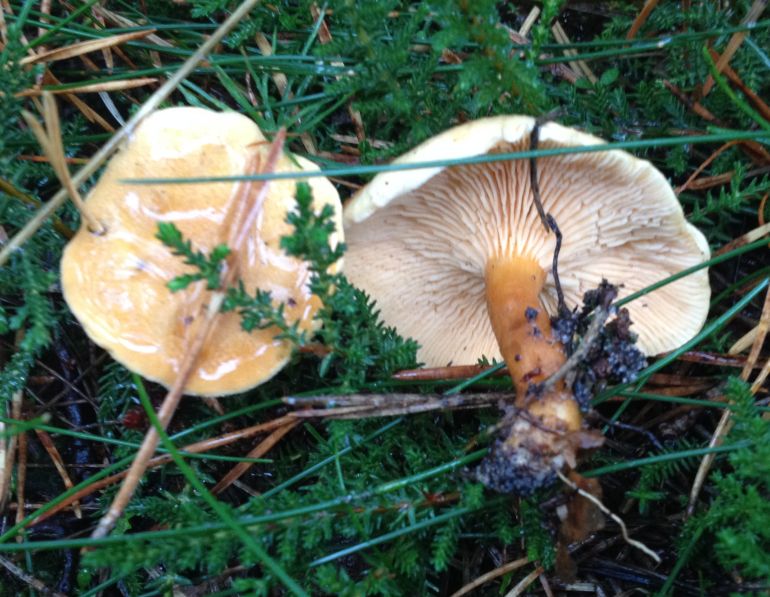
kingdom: Fungi
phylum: Basidiomycota
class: Agaricomycetes
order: Boletales
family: Hygrophoropsidaceae
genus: Hygrophoropsis
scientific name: Hygrophoropsis aurantiaca
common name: almindelig orangekantarel
